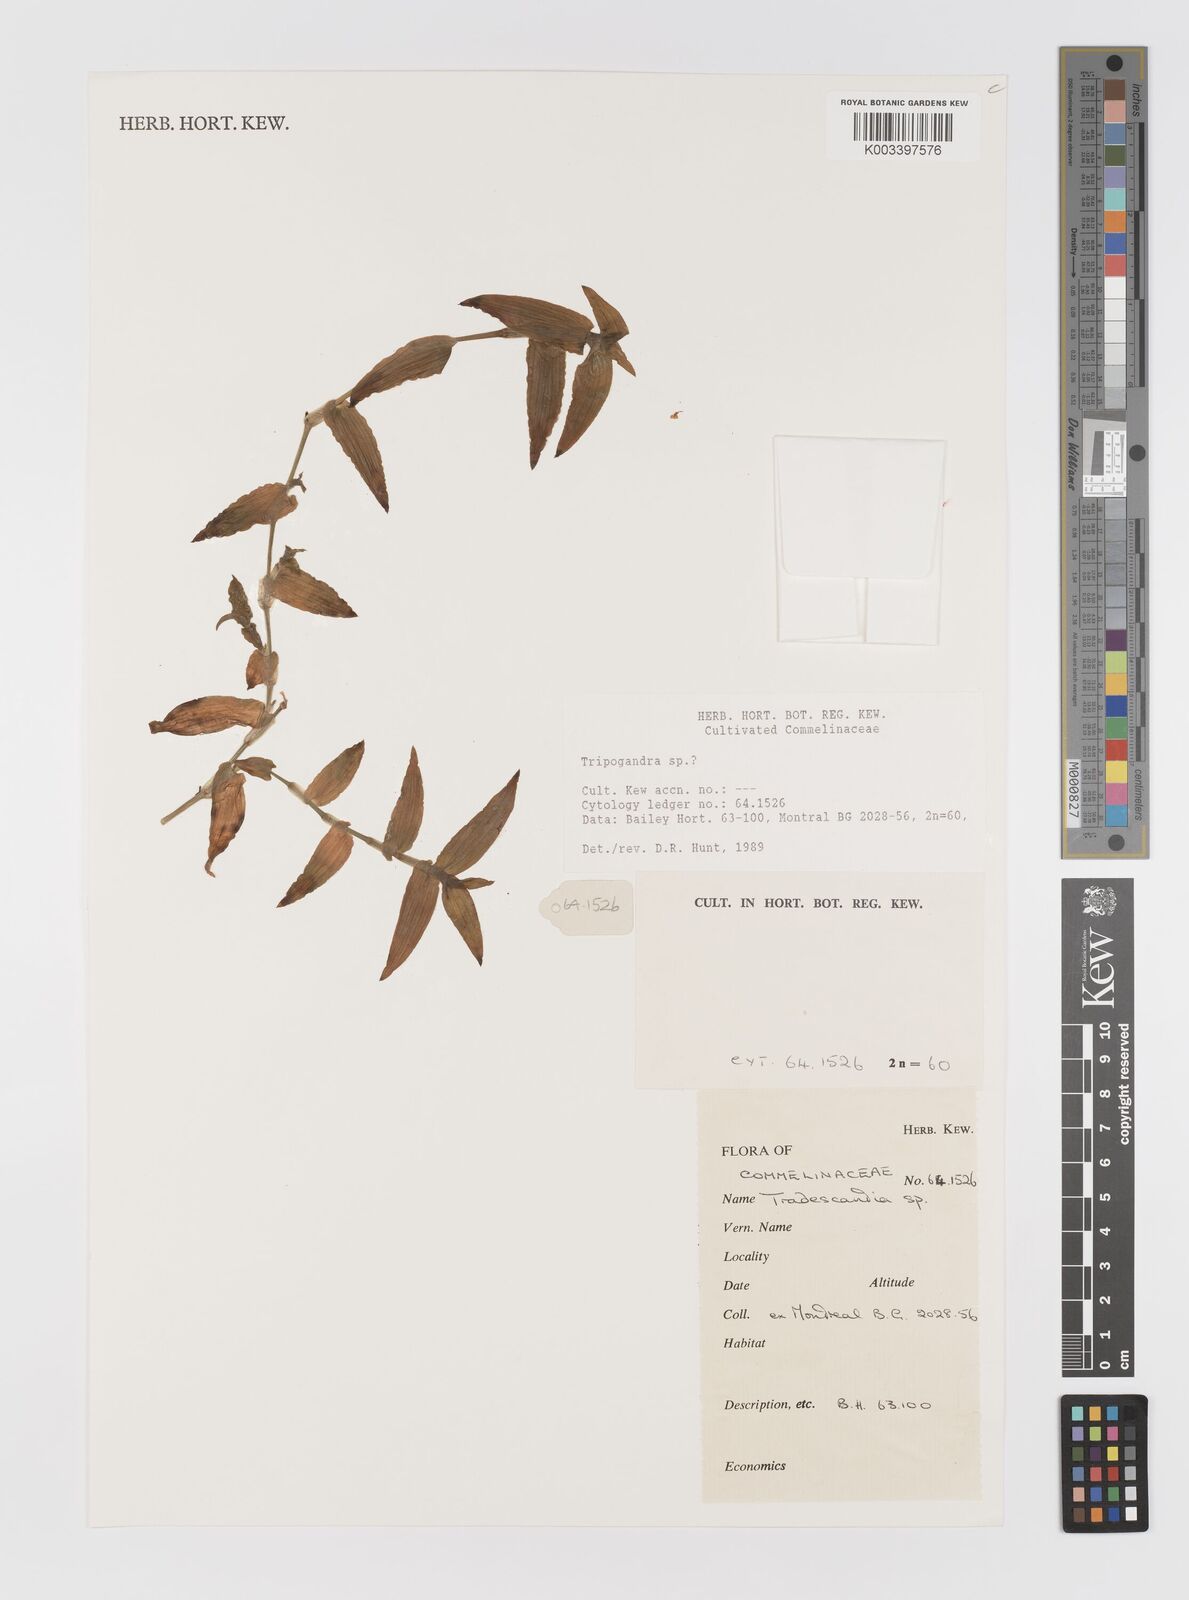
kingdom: Plantae
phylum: Tracheophyta
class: Liliopsida
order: Commelinales
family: Commelinaceae
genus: Callisia
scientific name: Callisia
